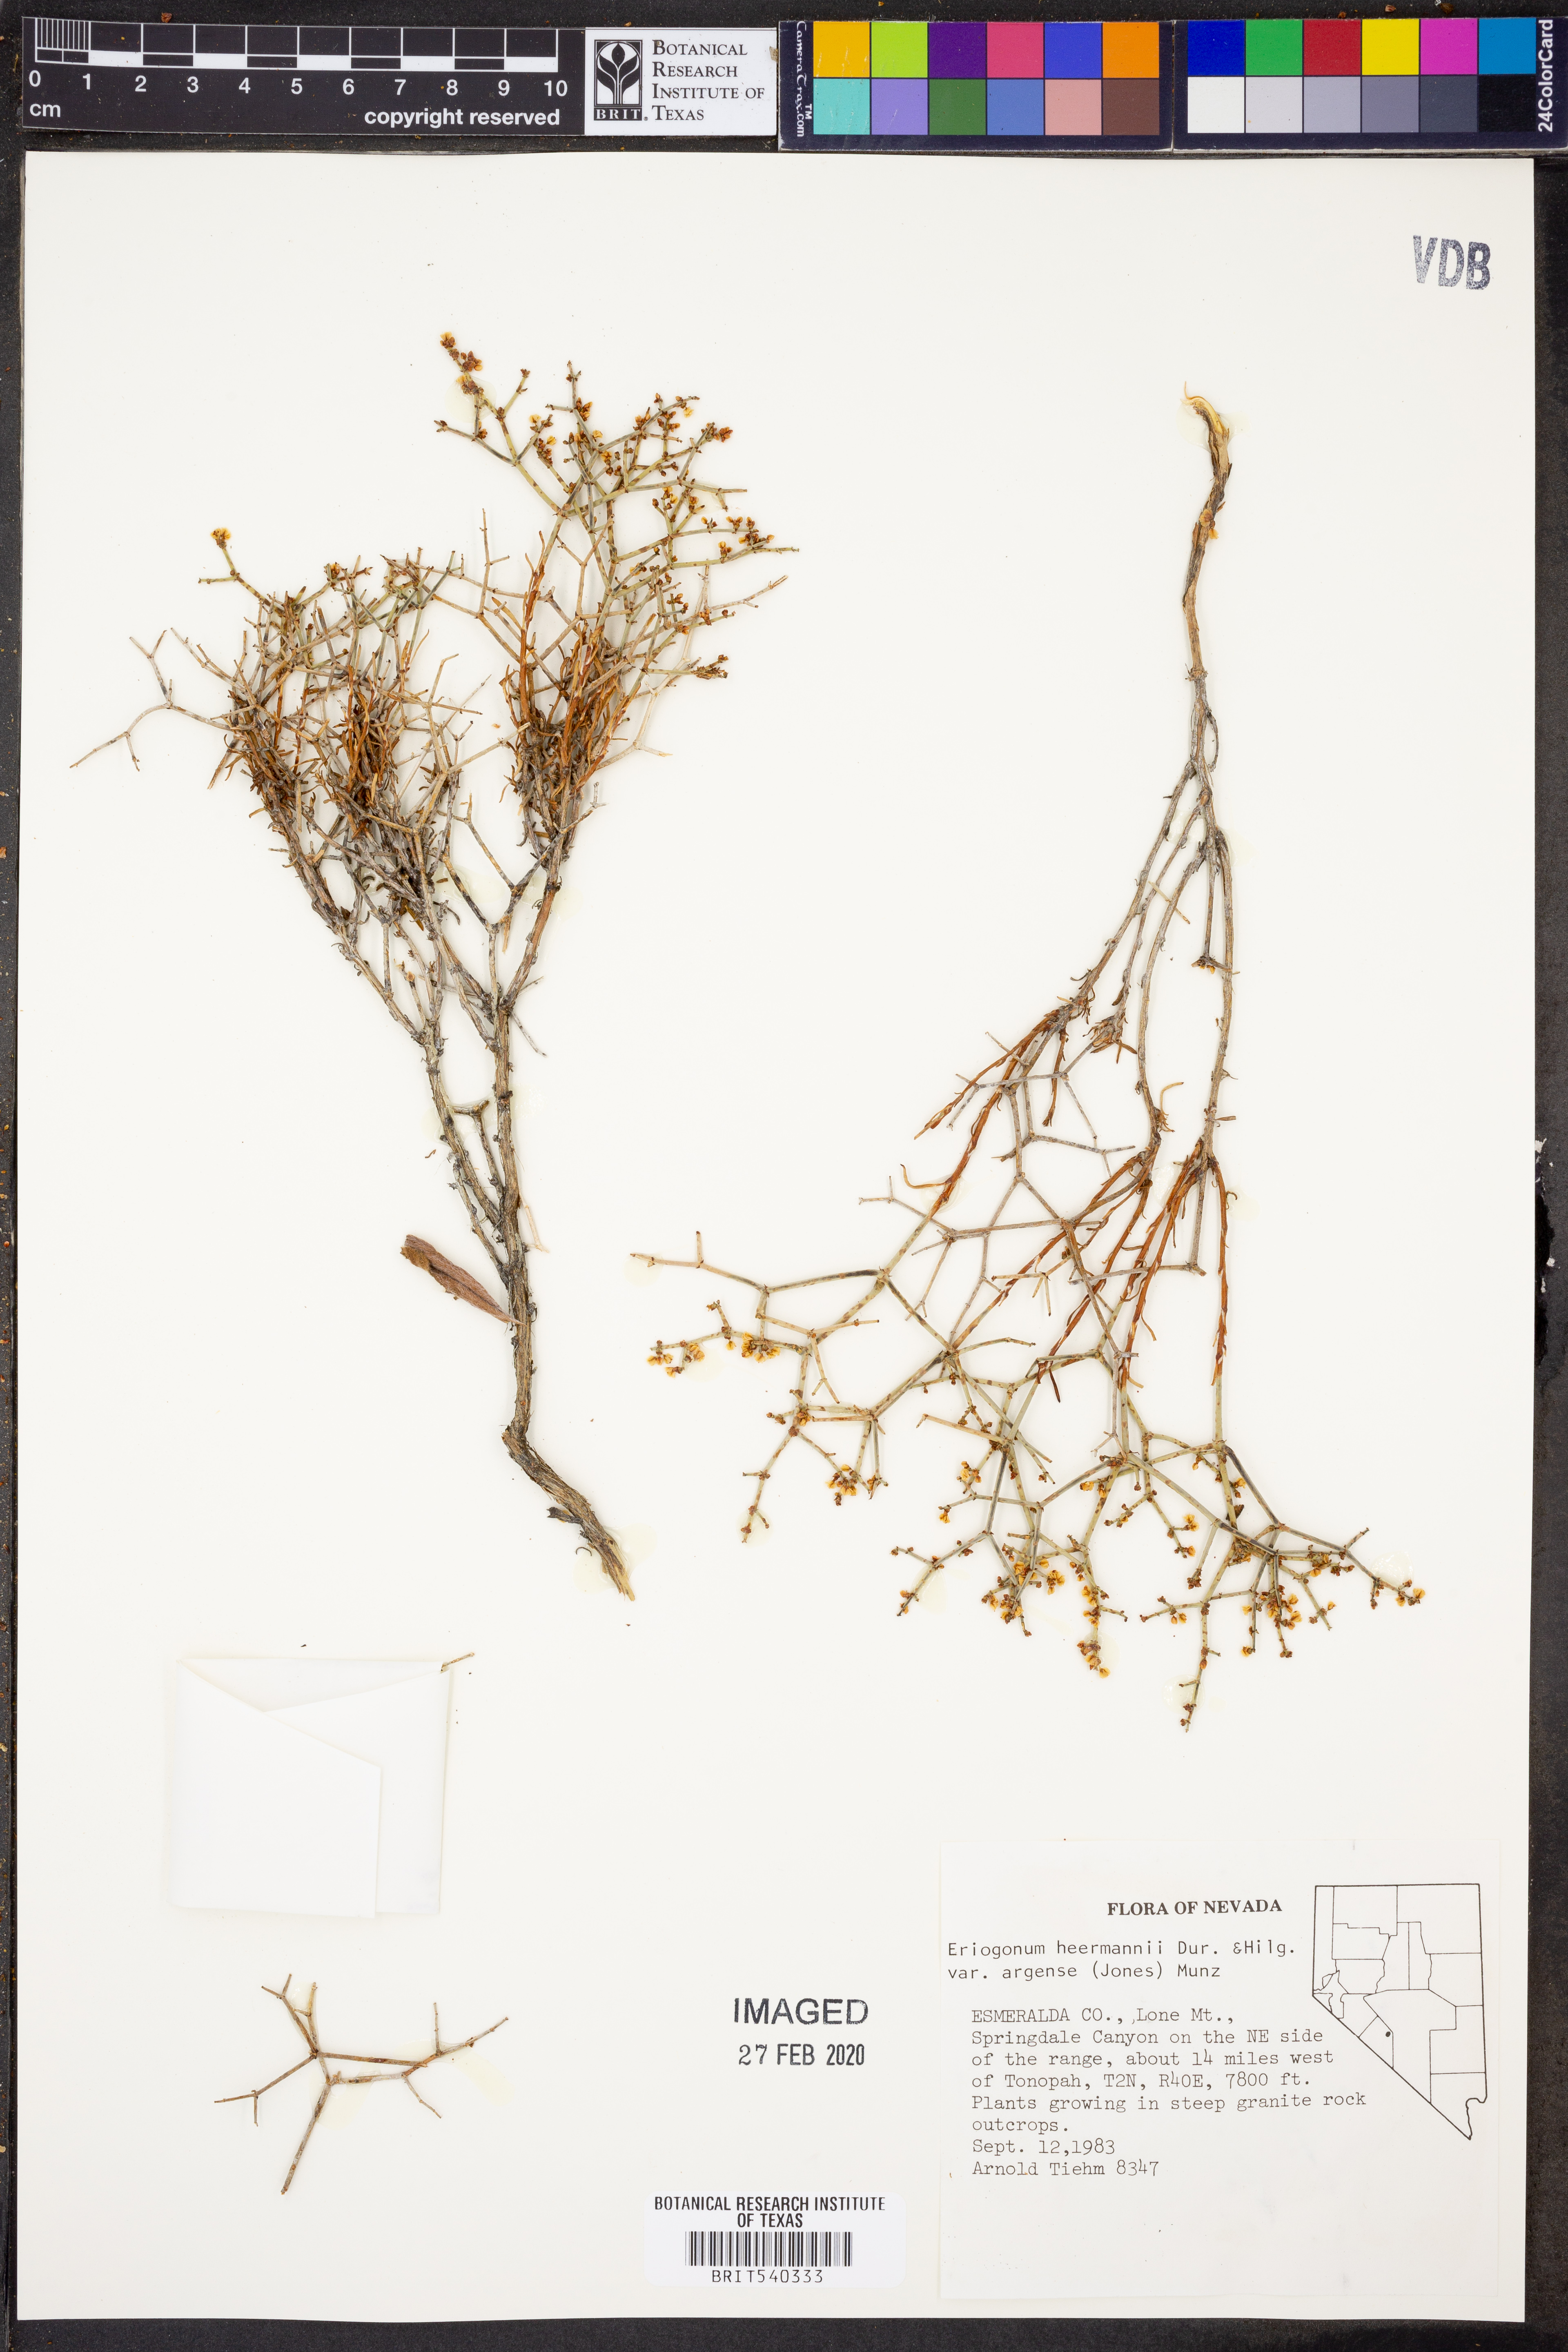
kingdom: Plantae
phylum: Tracheophyta
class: Magnoliopsida
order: Caryophyllales
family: Polygonaceae
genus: Eriogonum
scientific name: Eriogonum heermannii
